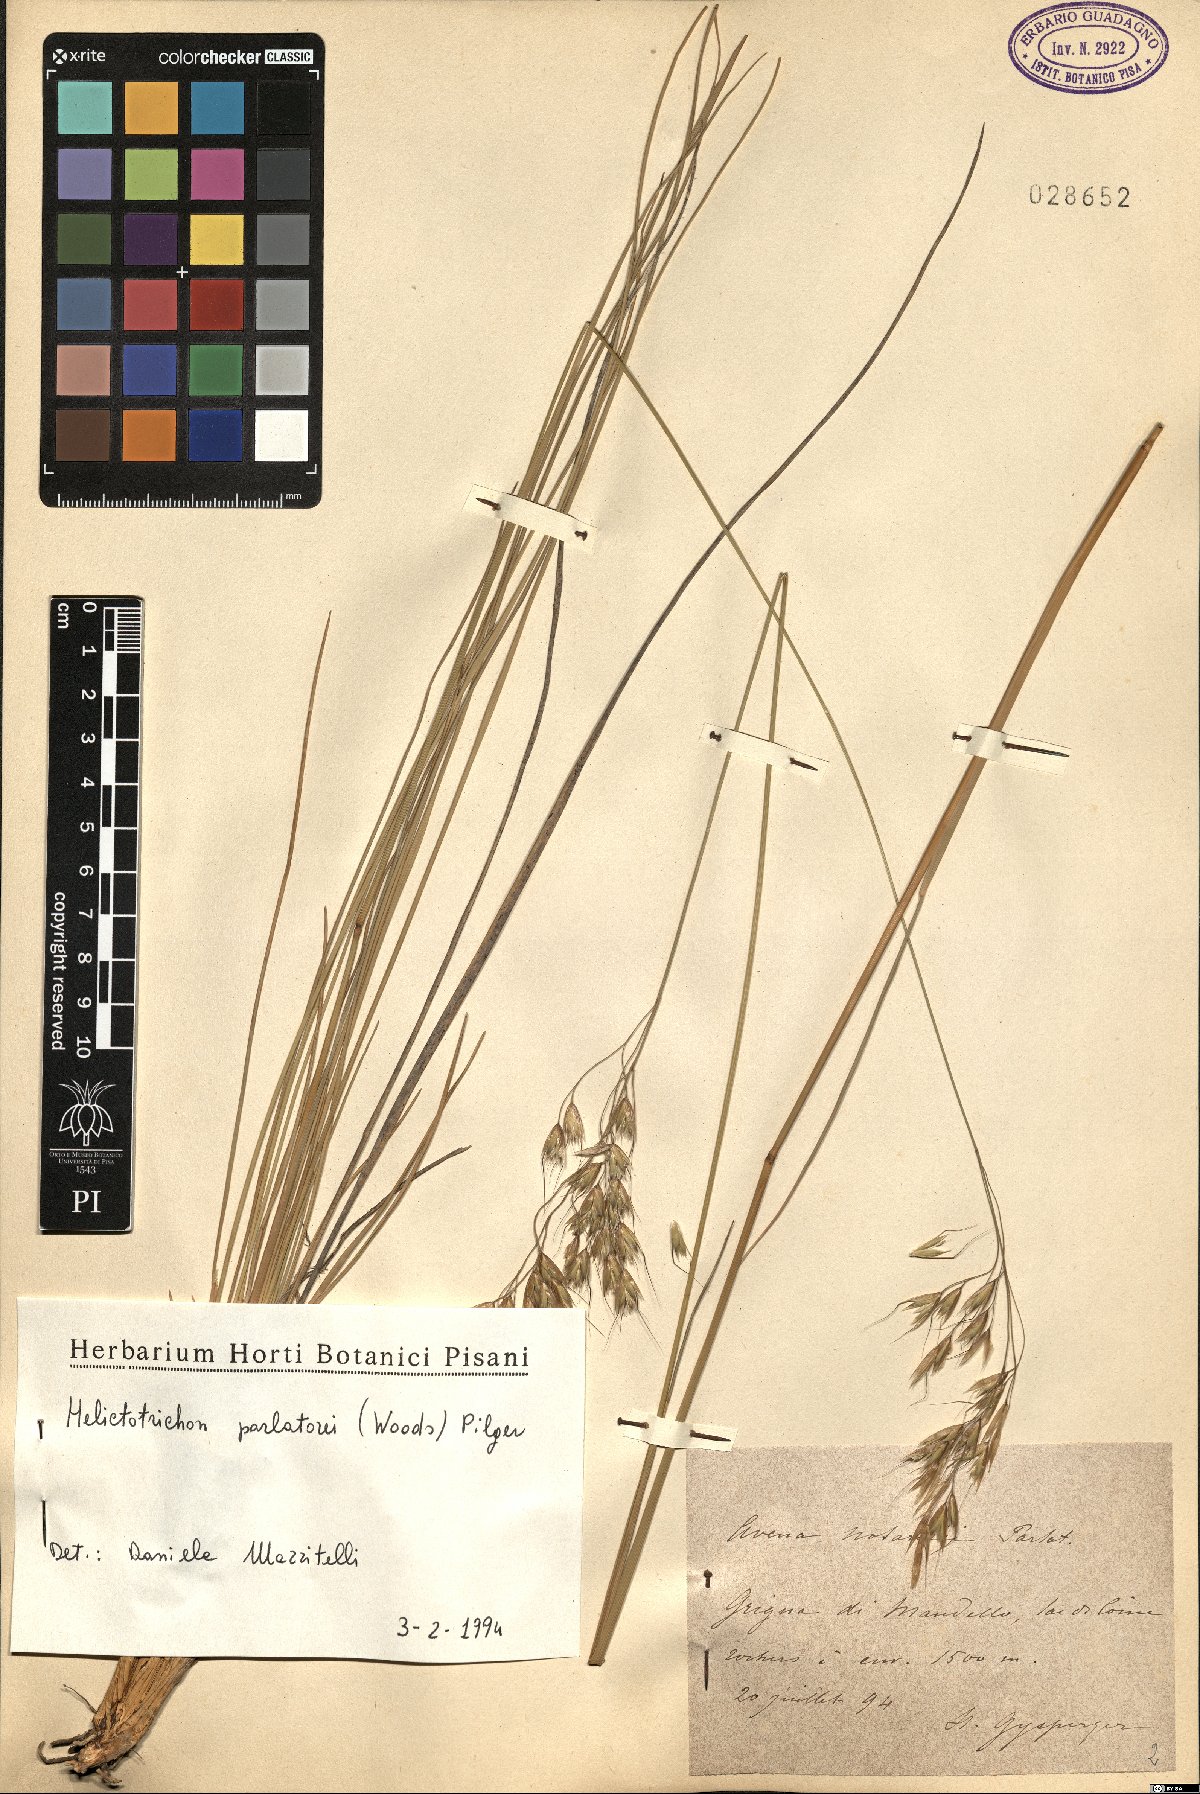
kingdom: Plantae
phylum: Tracheophyta
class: Liliopsida
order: Poales
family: Poaceae
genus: Helictotrichon
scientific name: Helictotrichon parlatorei
